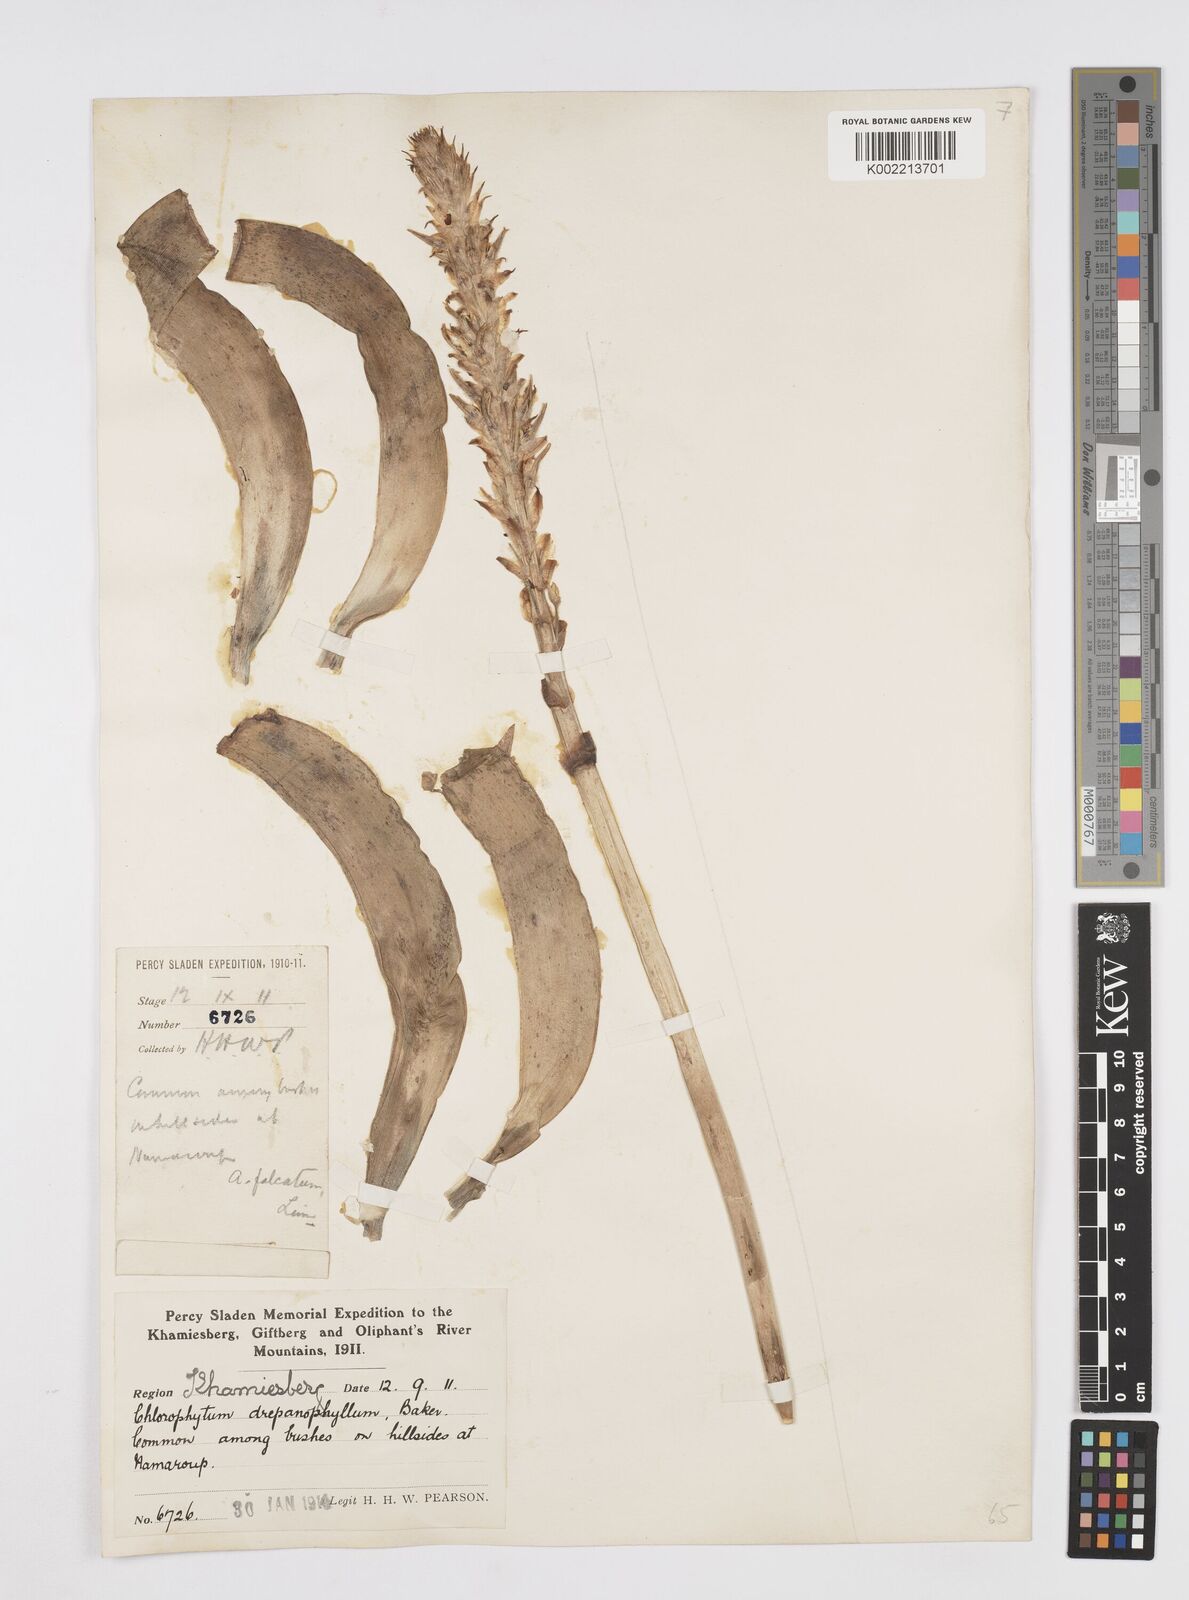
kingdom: Plantae
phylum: Tracheophyta
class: Liliopsida
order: Asparagales
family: Asphodelaceae
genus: Trachyandra
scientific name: Trachyandra falcata
